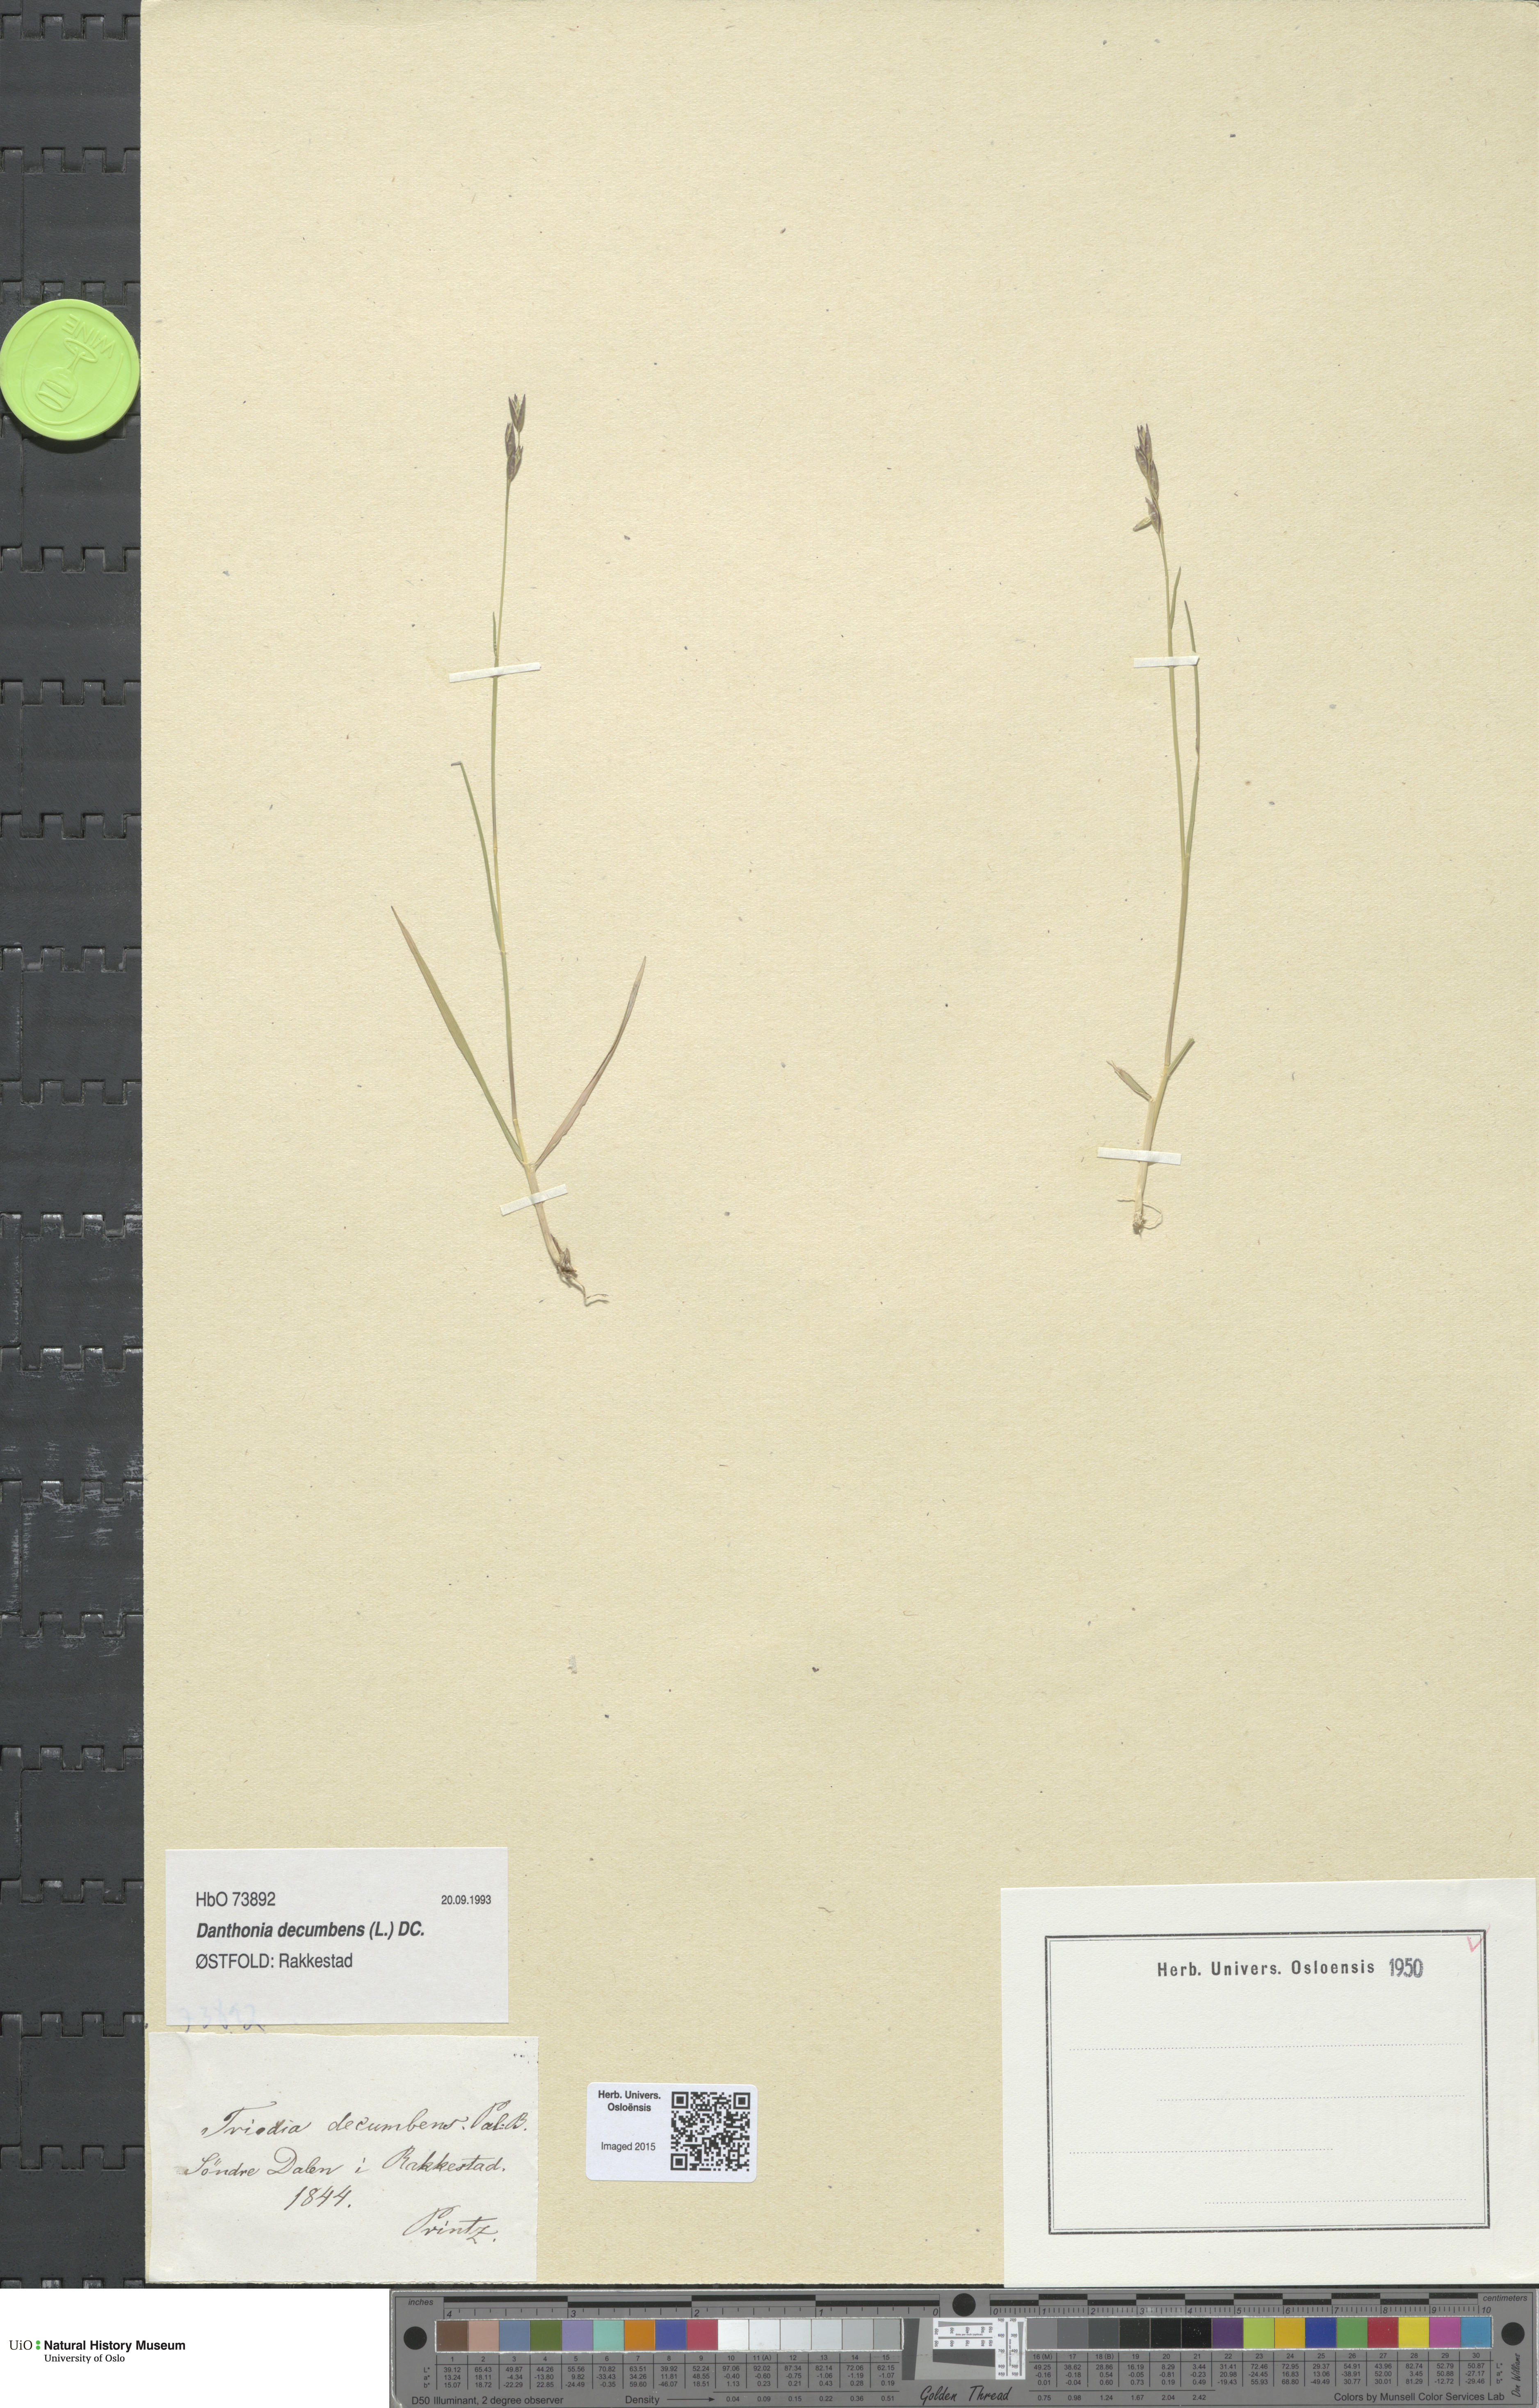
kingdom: Plantae
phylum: Tracheophyta
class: Liliopsida
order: Poales
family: Poaceae
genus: Danthonia
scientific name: Danthonia decumbens
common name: Common heathgrass
